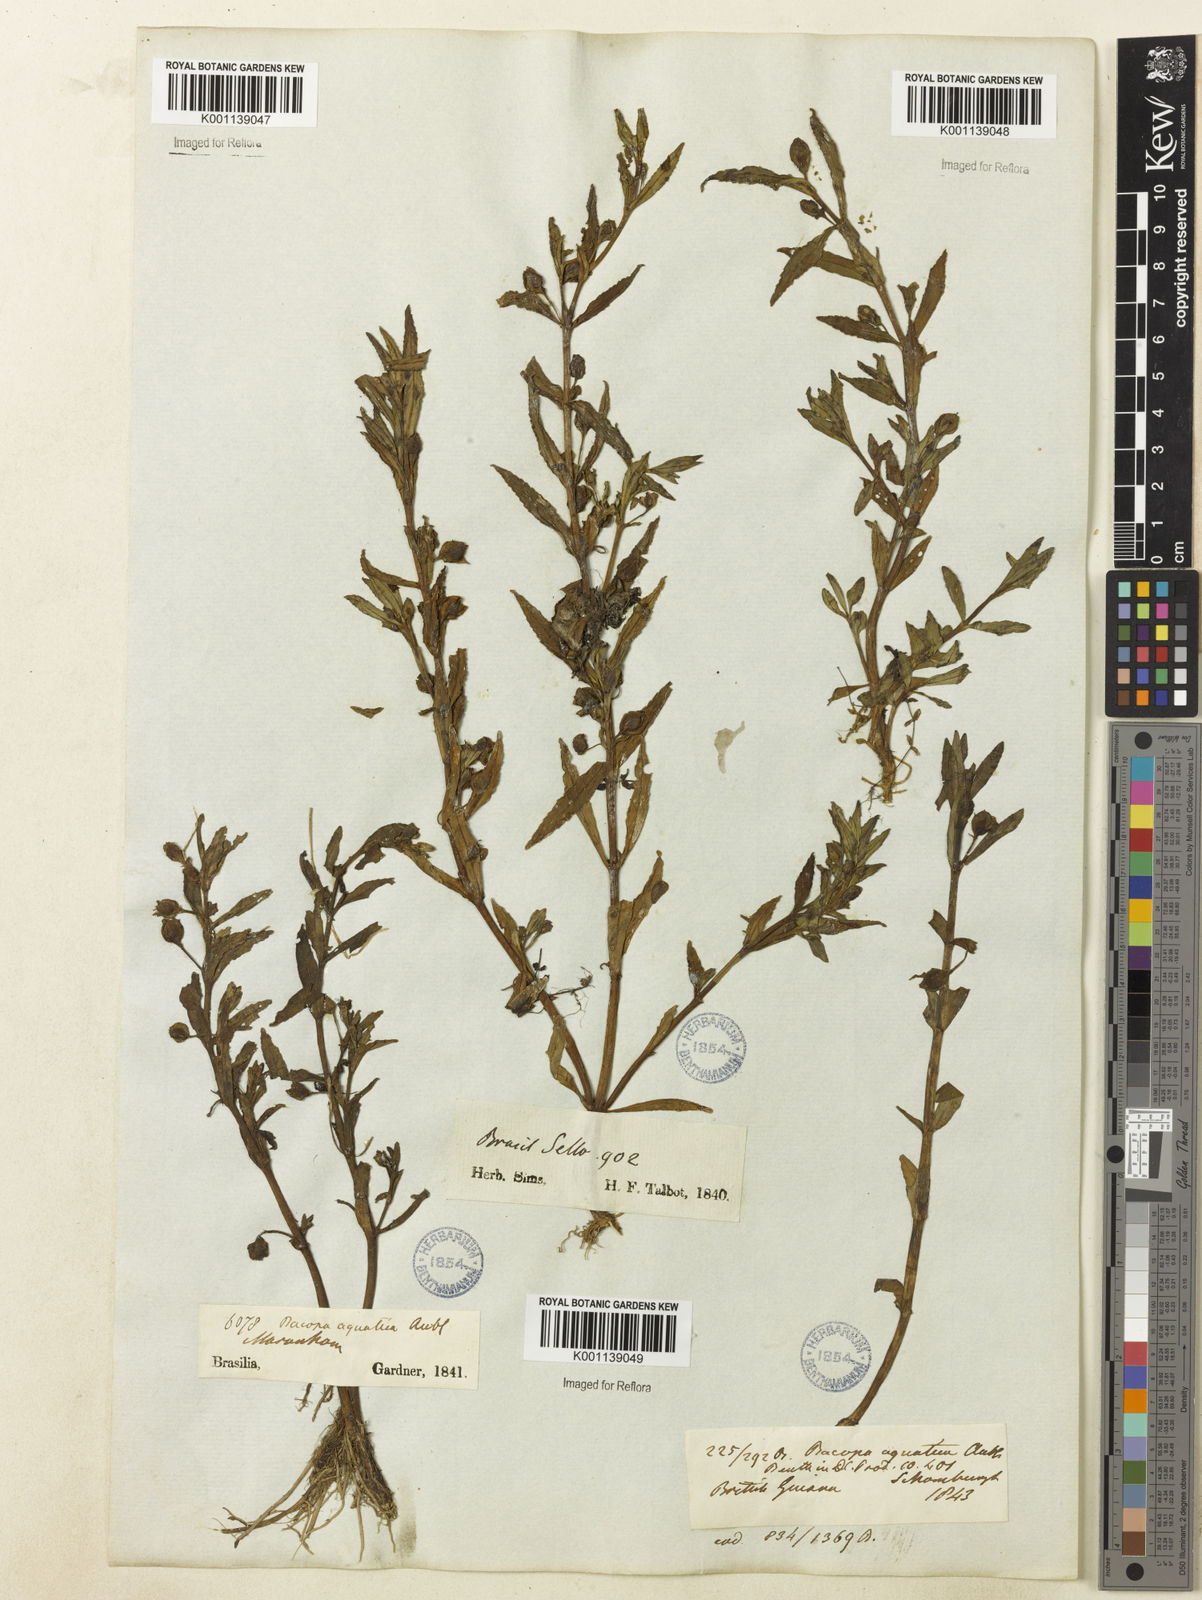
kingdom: Plantae
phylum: Tracheophyta
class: Magnoliopsida
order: Lamiales
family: Plantaginaceae
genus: Bacopa
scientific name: Bacopa aquatica
